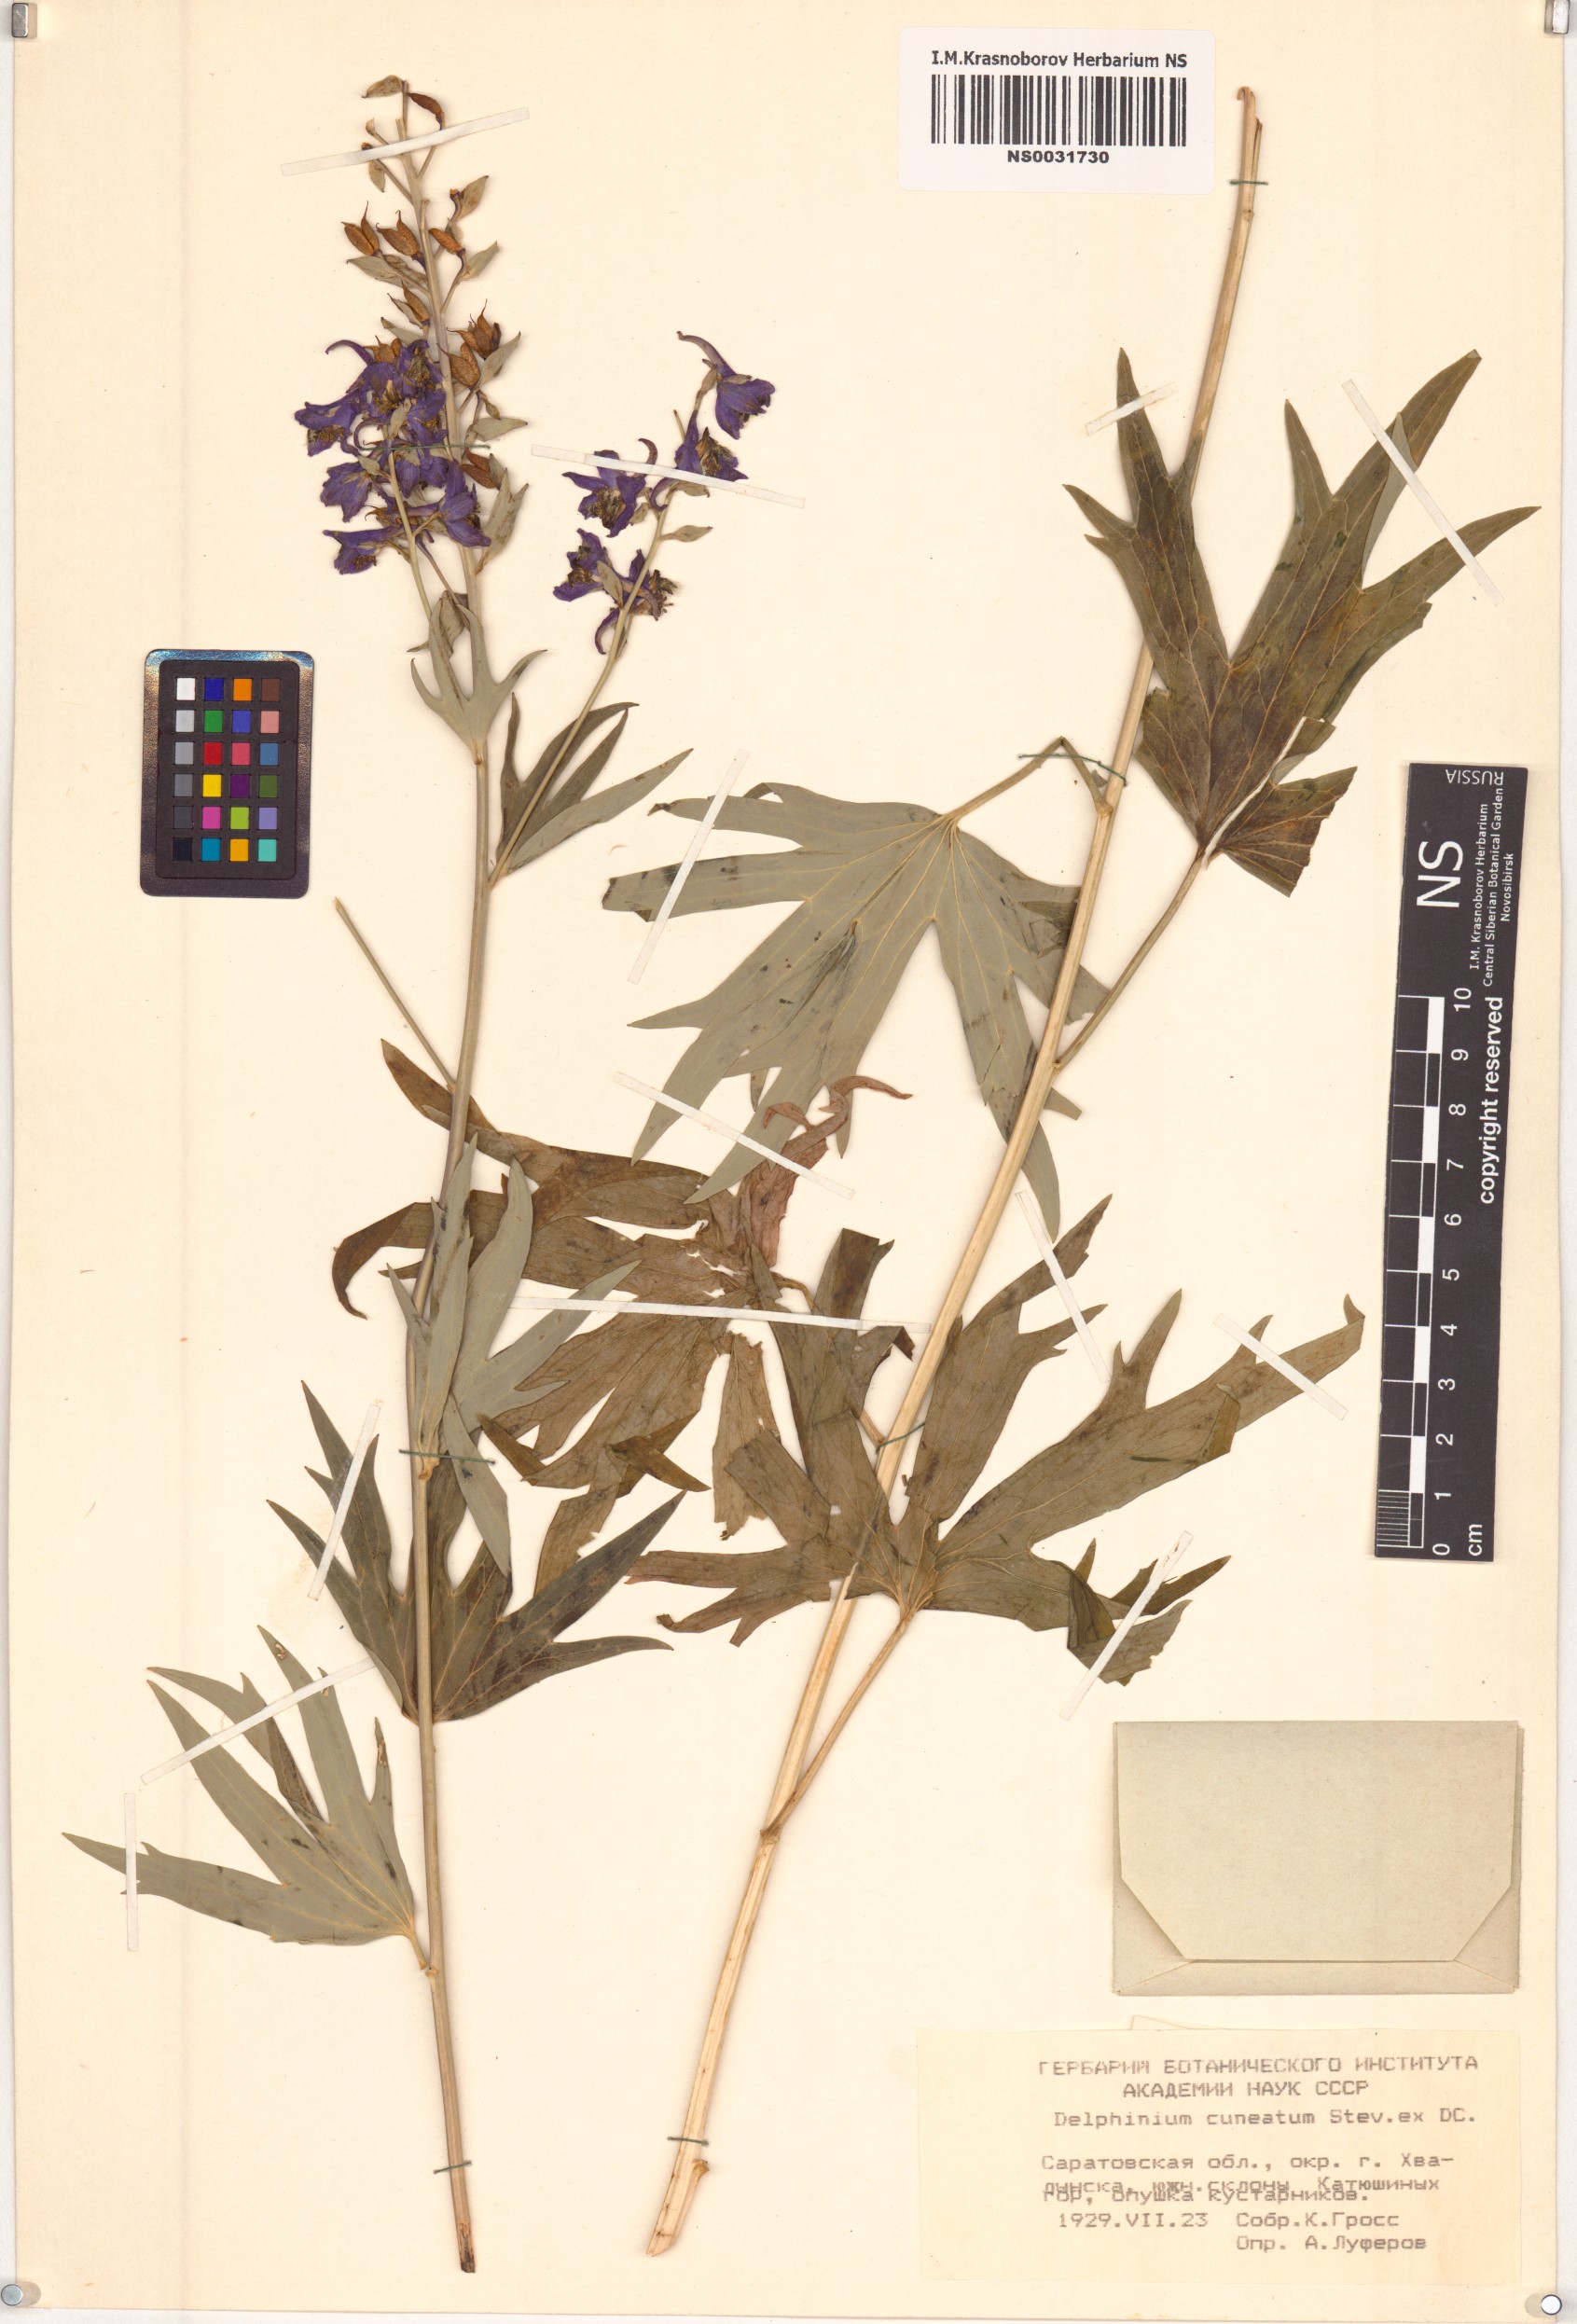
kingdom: Plantae
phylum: Tracheophyta
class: Magnoliopsida
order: Ranunculales
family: Ranunculaceae
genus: Delphinium
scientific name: Delphinium cuneatum
